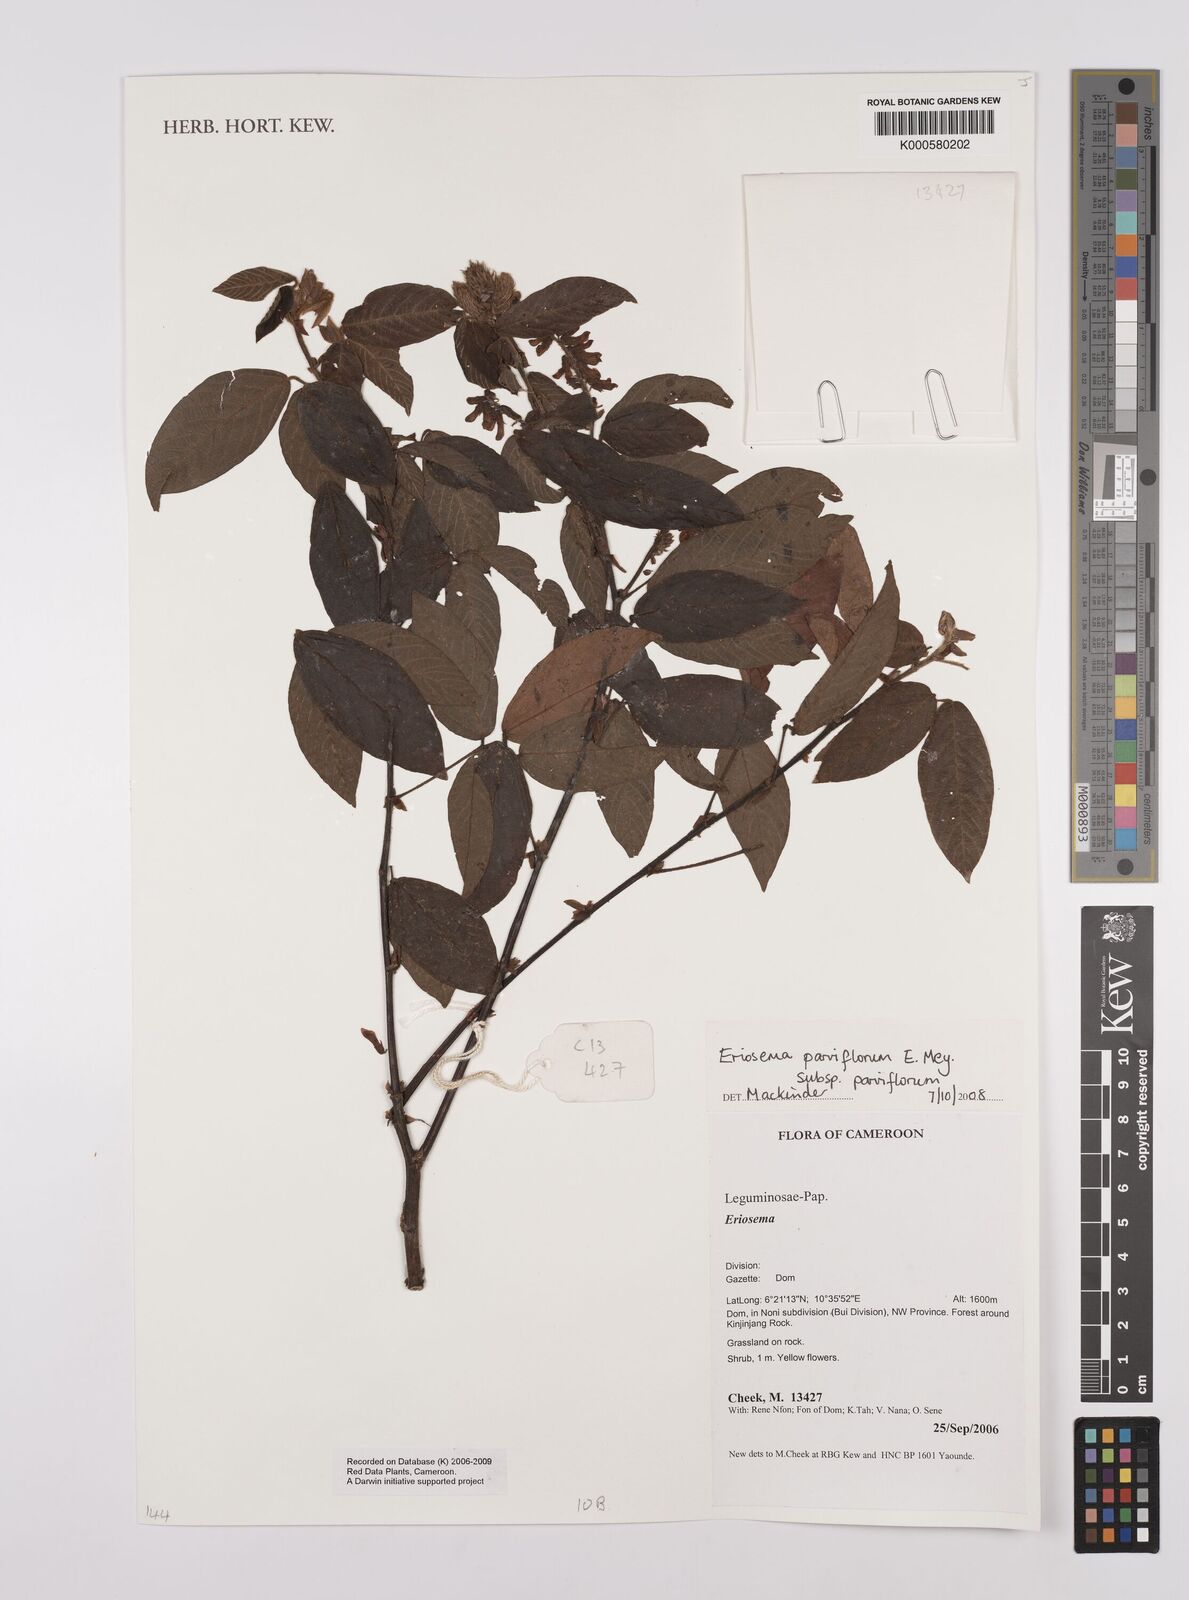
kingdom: Plantae
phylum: Tracheophyta
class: Magnoliopsida
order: Fabales
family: Fabaceae
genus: Eriosema
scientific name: Eriosema parviflorum
